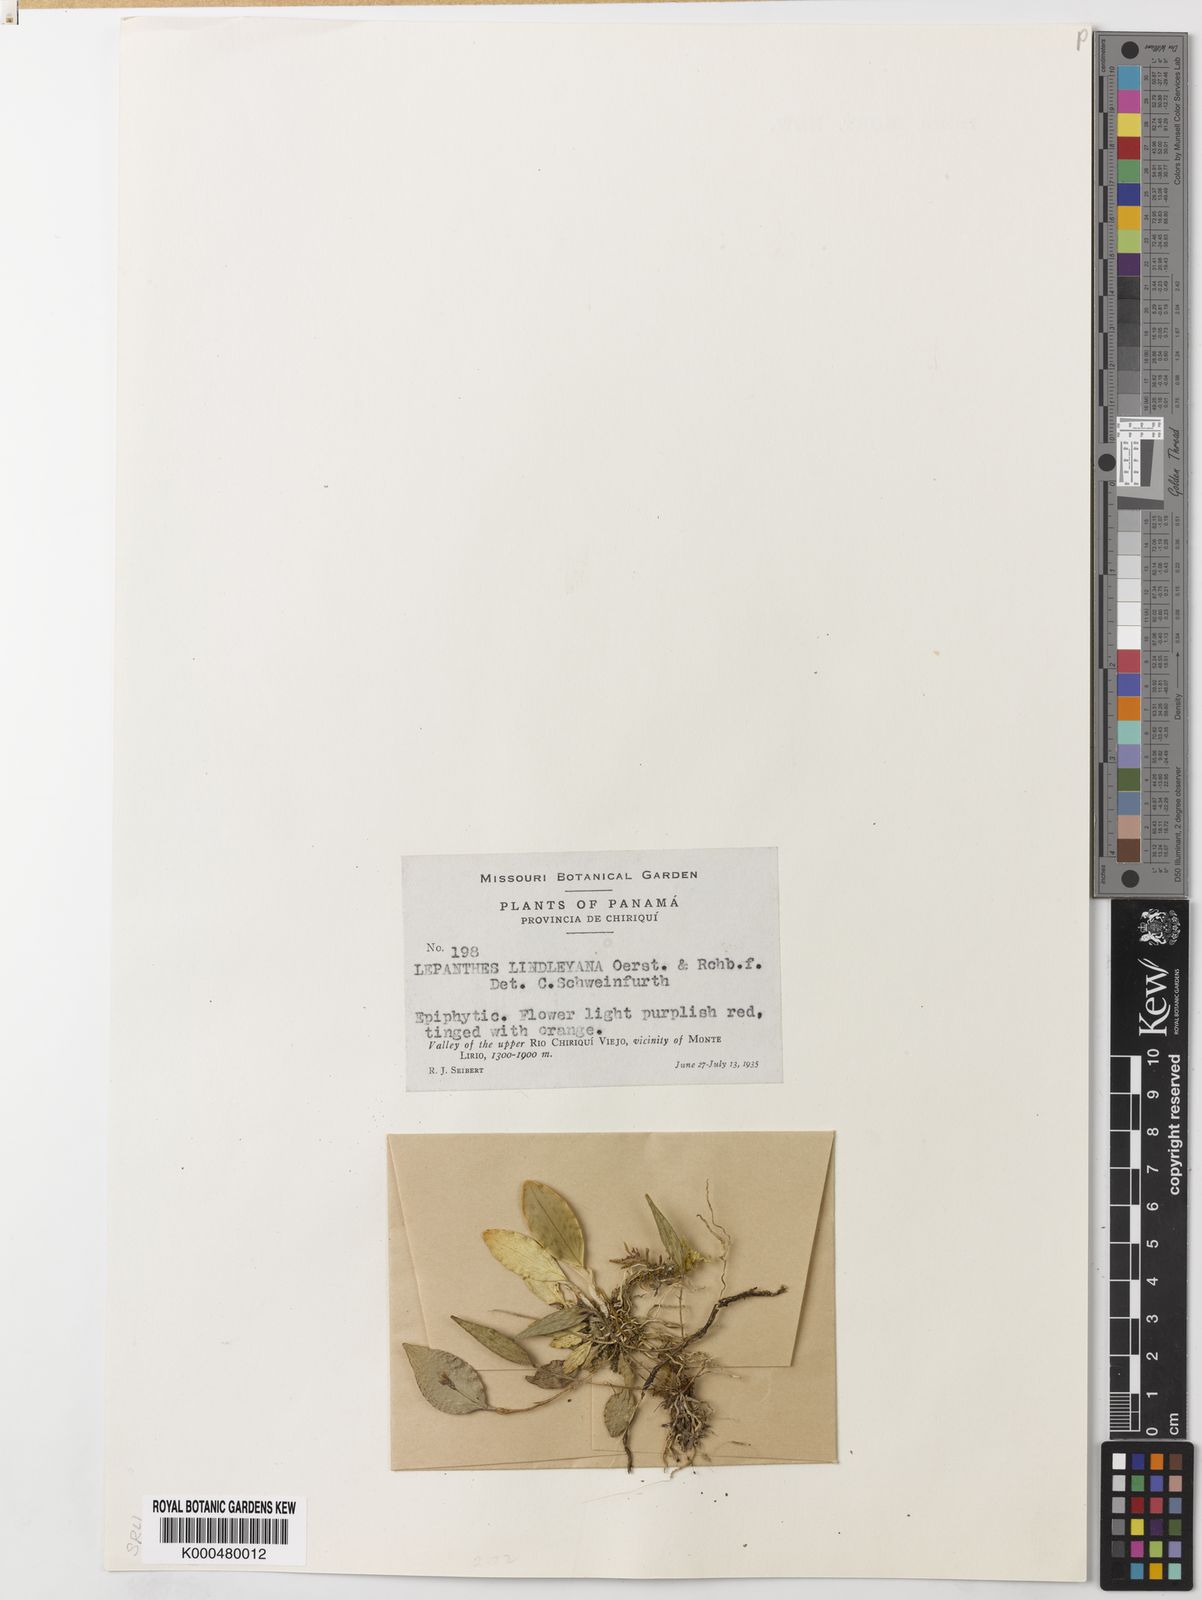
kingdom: Plantae
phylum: Tracheophyta
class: Liliopsida
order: Asparagales
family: Orchidaceae
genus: Lepanthes
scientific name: Lepanthes lindleyana
